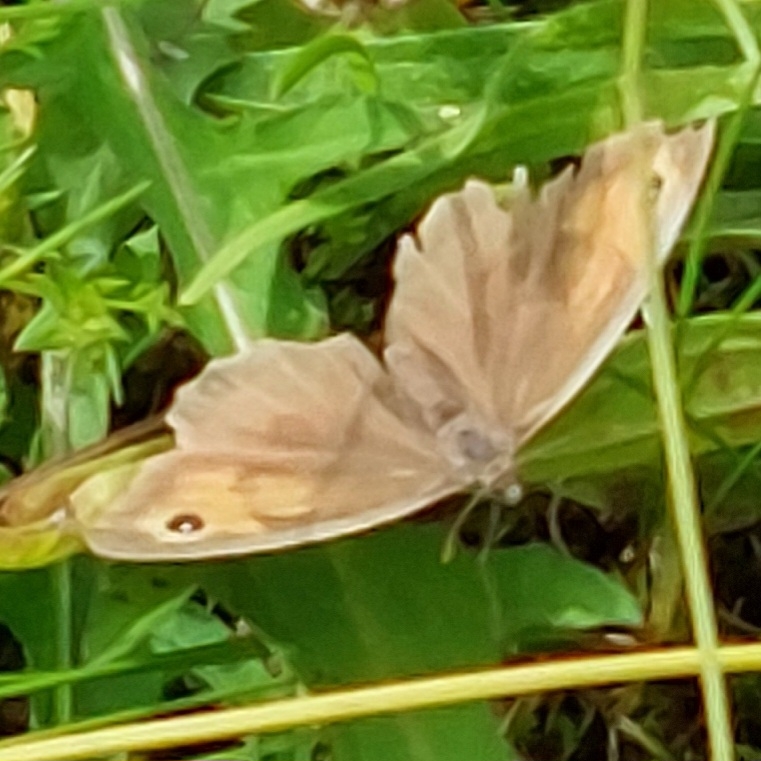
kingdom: Animalia
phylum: Arthropoda
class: Insecta
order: Lepidoptera
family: Nymphalidae
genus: Maniola
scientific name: Maniola jurtina
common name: Græsrandøje
